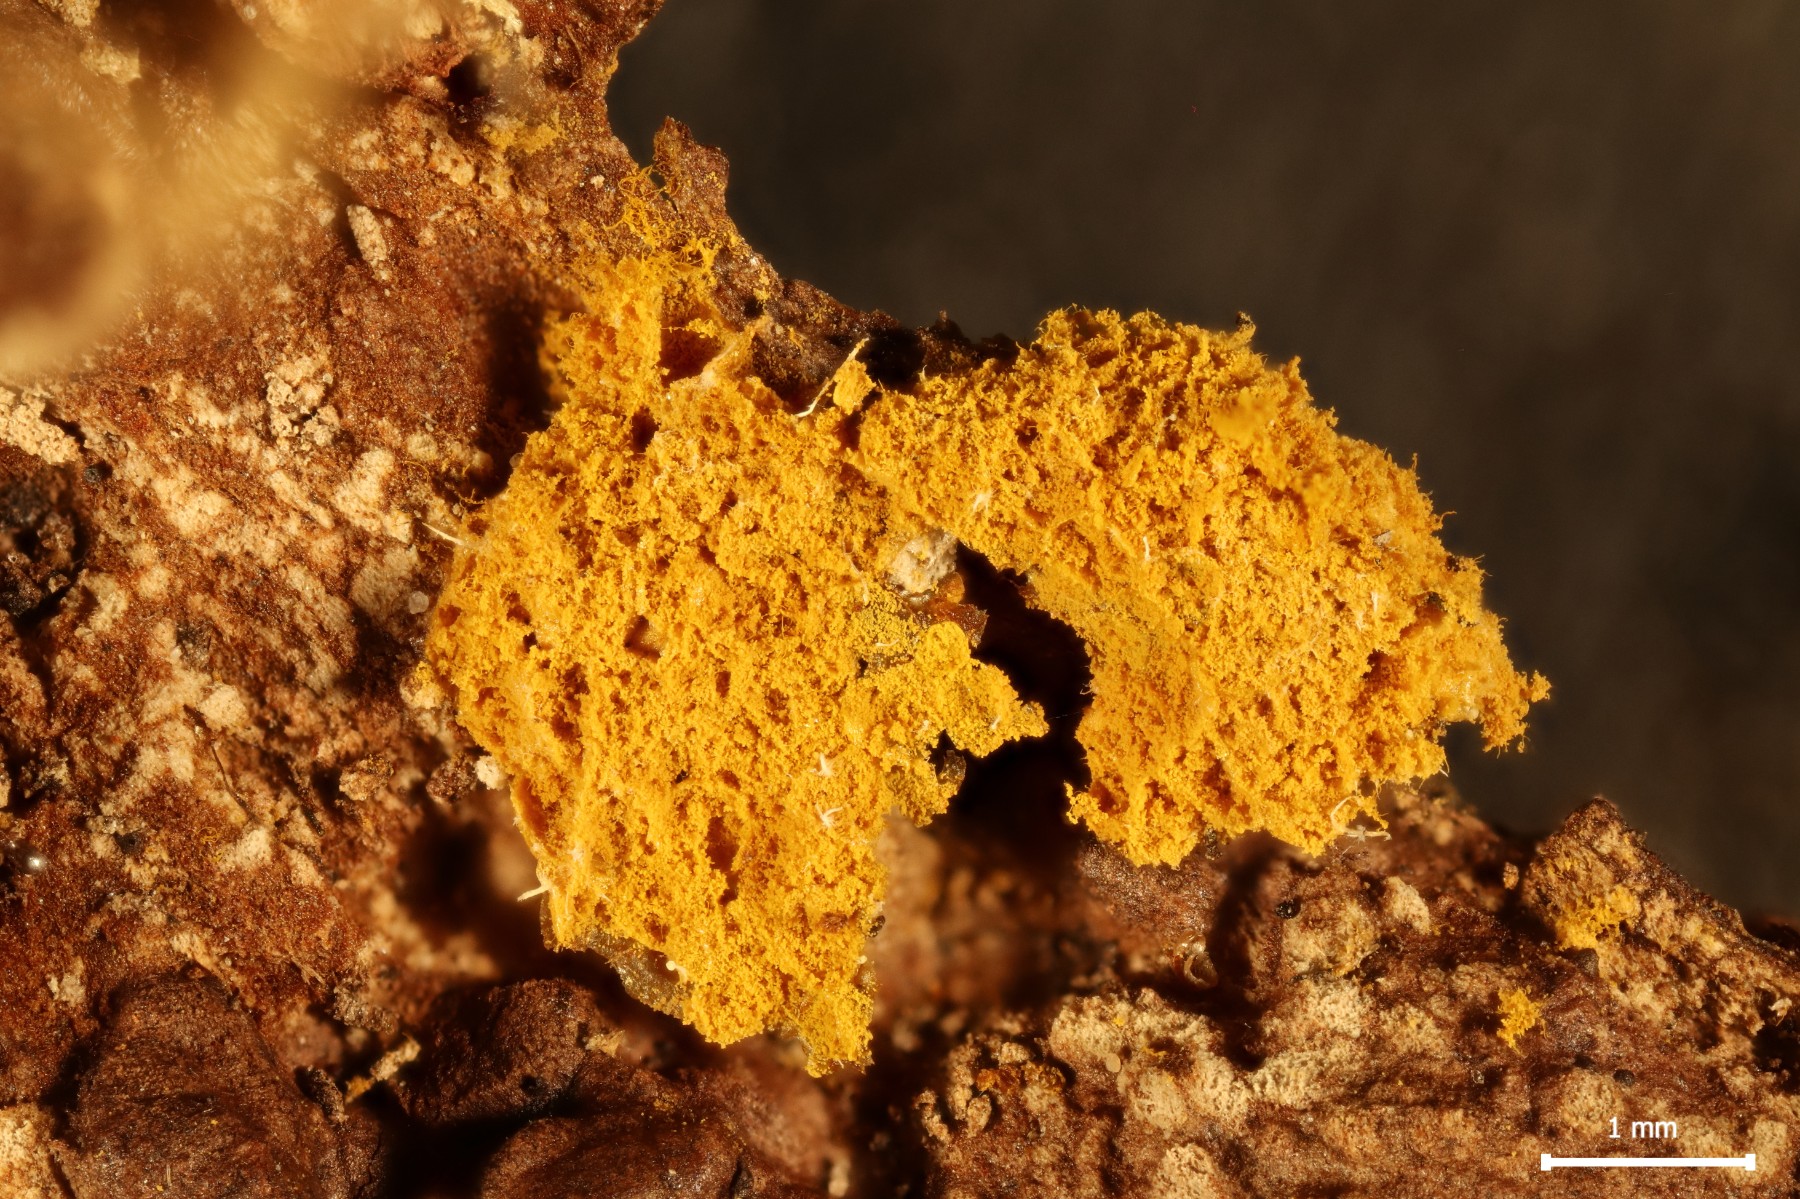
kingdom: Protozoa
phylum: Mycetozoa
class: Myxomycetes
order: Trichiales
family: Trichiaceae
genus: Oligonema
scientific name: Oligonema affine
